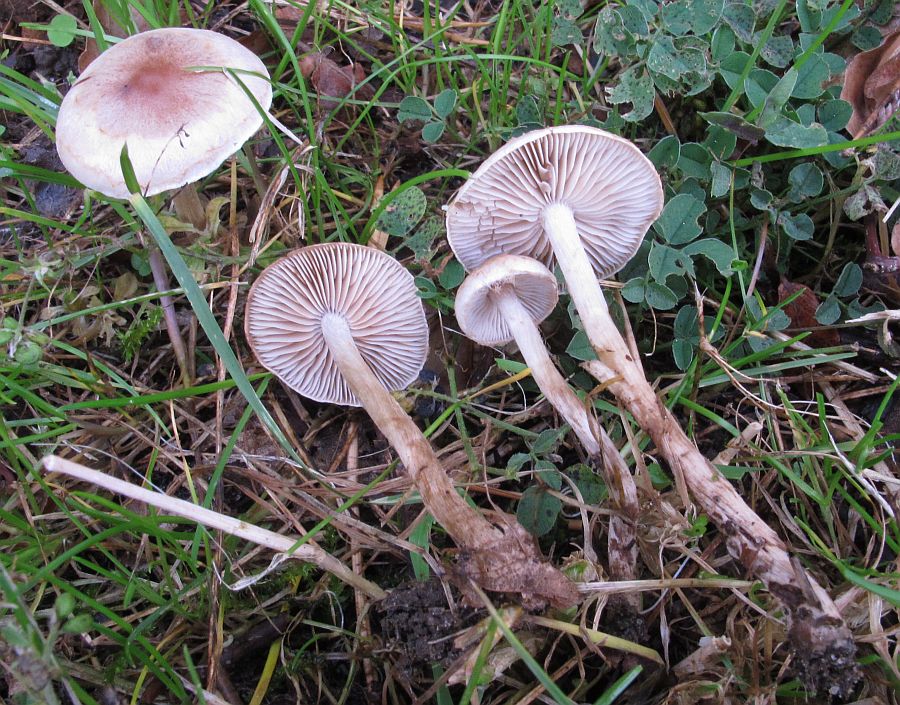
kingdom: Fungi
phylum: Basidiomycota
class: Agaricomycetes
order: Agaricales
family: Hymenogastraceae
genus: Hebeloma
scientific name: Hebeloma mesophaeum
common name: lerbrun tåreblad
